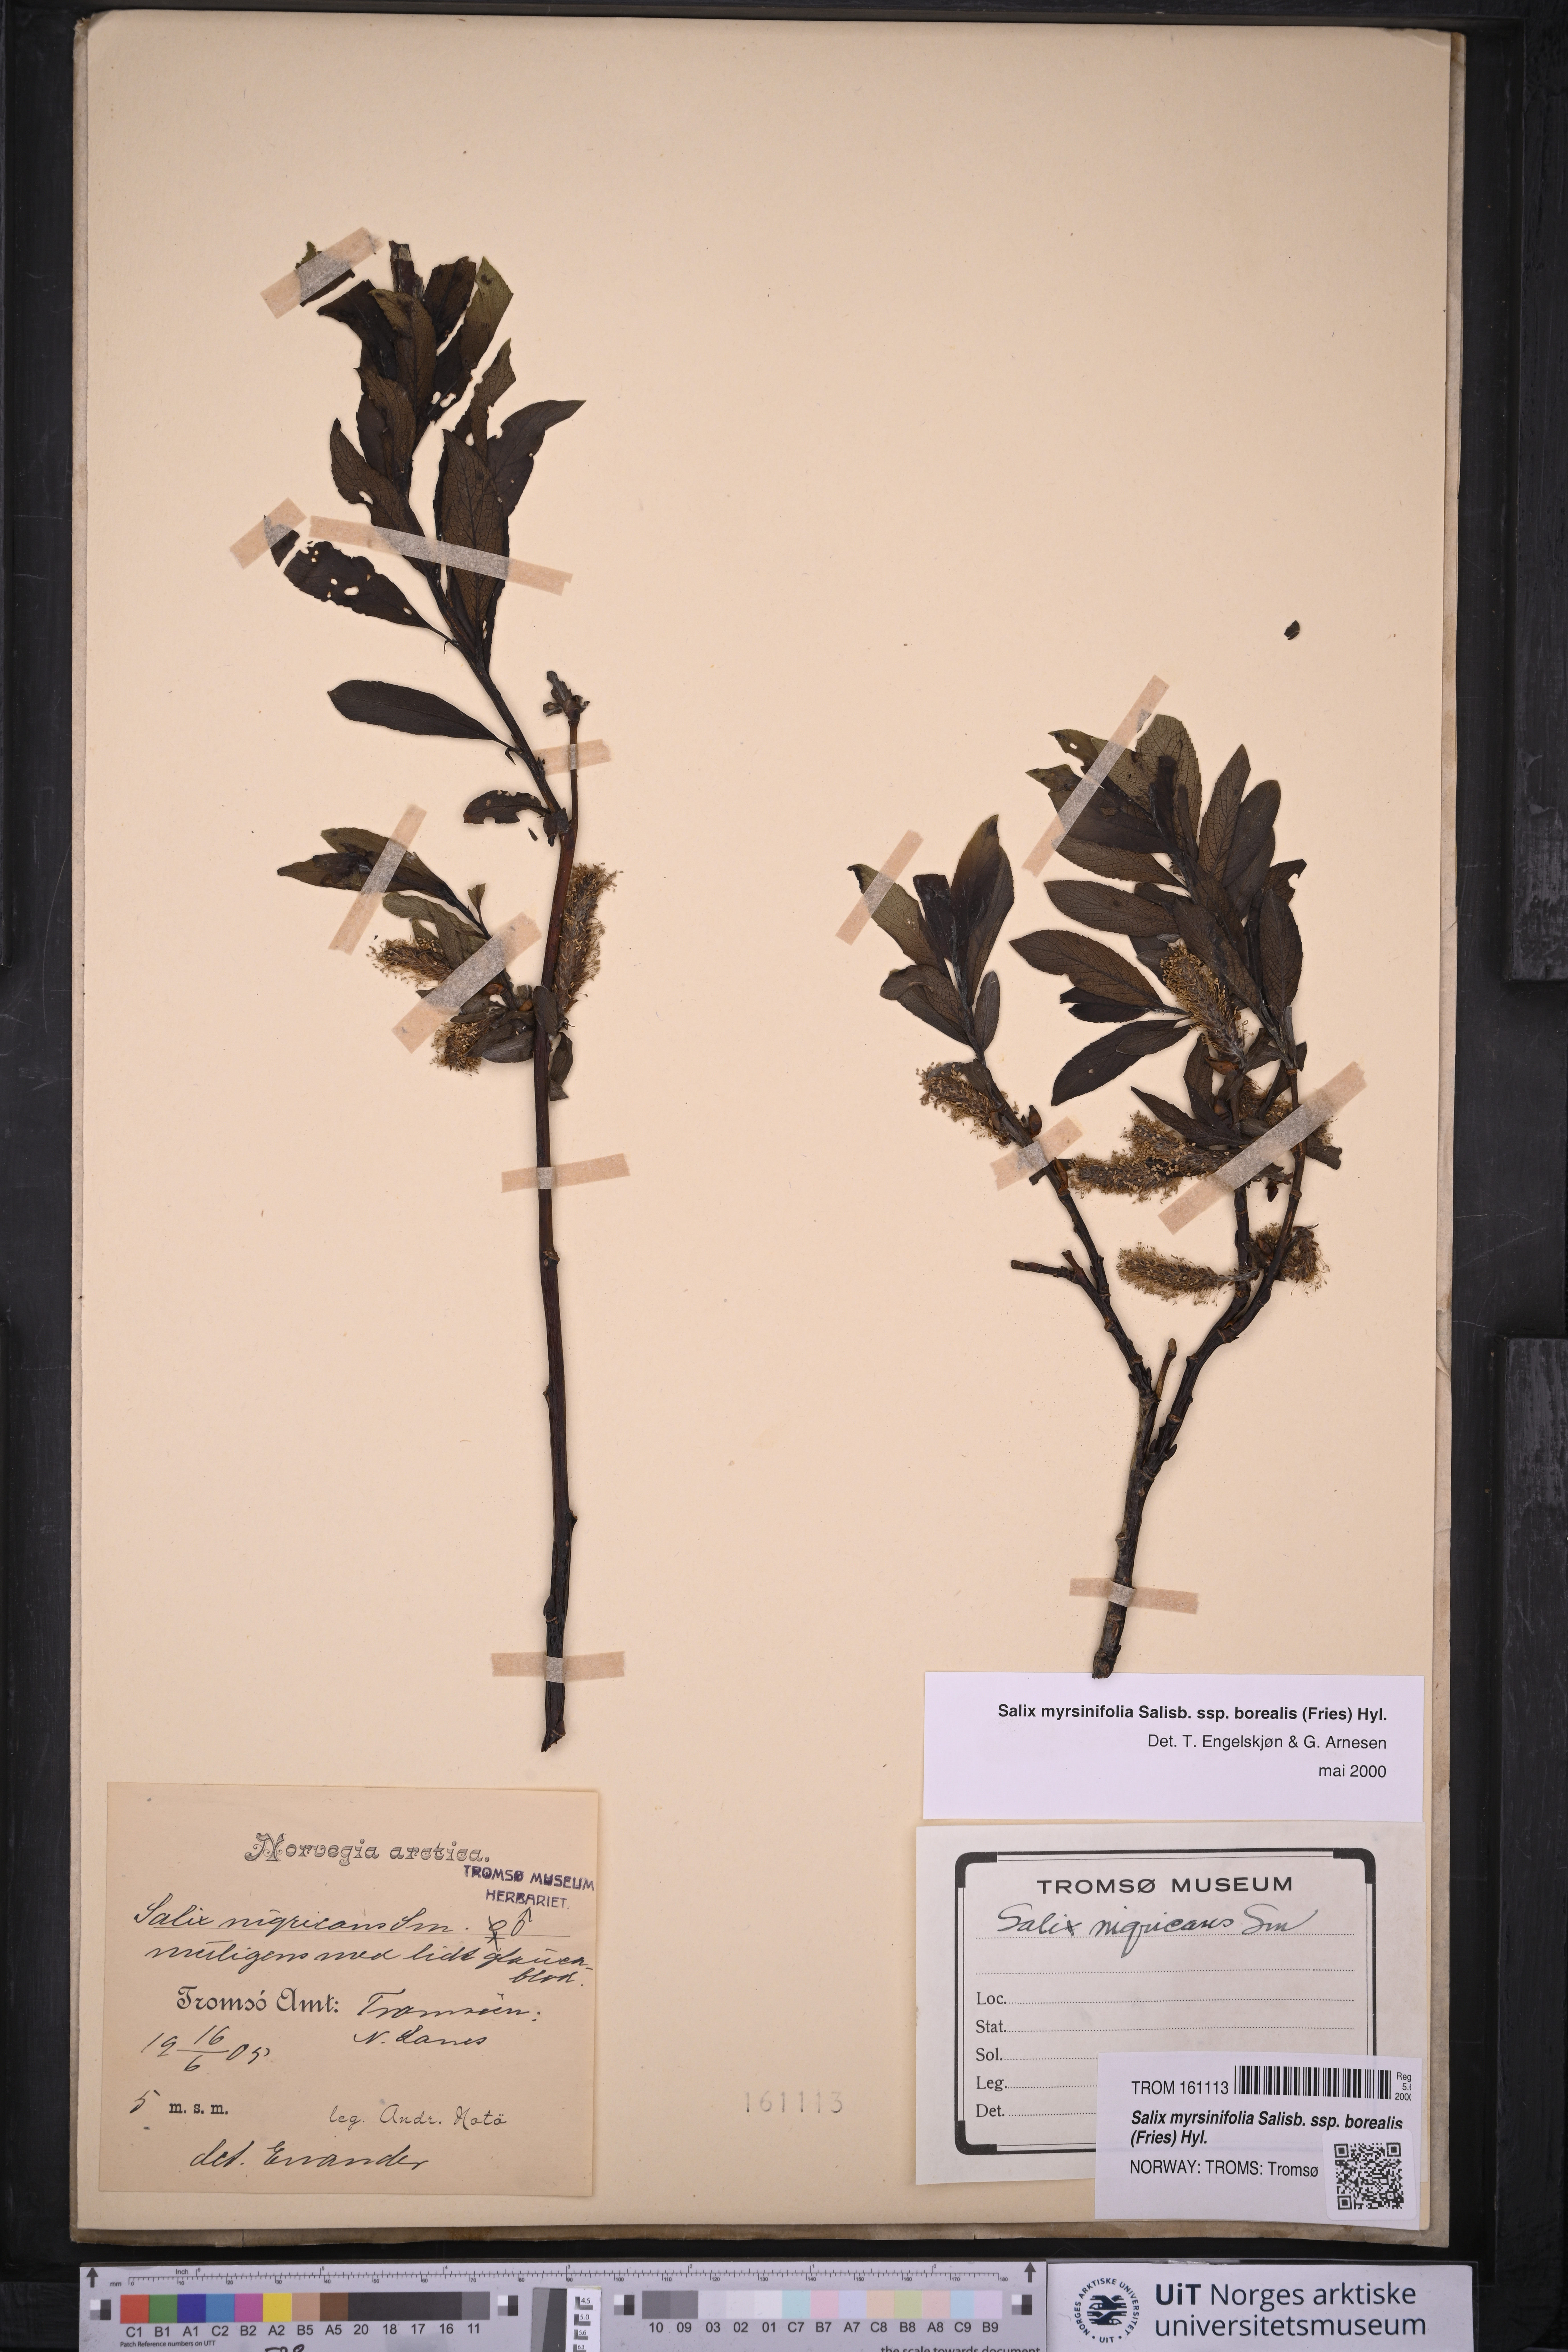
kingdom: Plantae
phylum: Tracheophyta
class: Magnoliopsida
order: Malpighiales
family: Salicaceae
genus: Salix
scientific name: Salix myrsinifolia
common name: Dark-leaved willow
